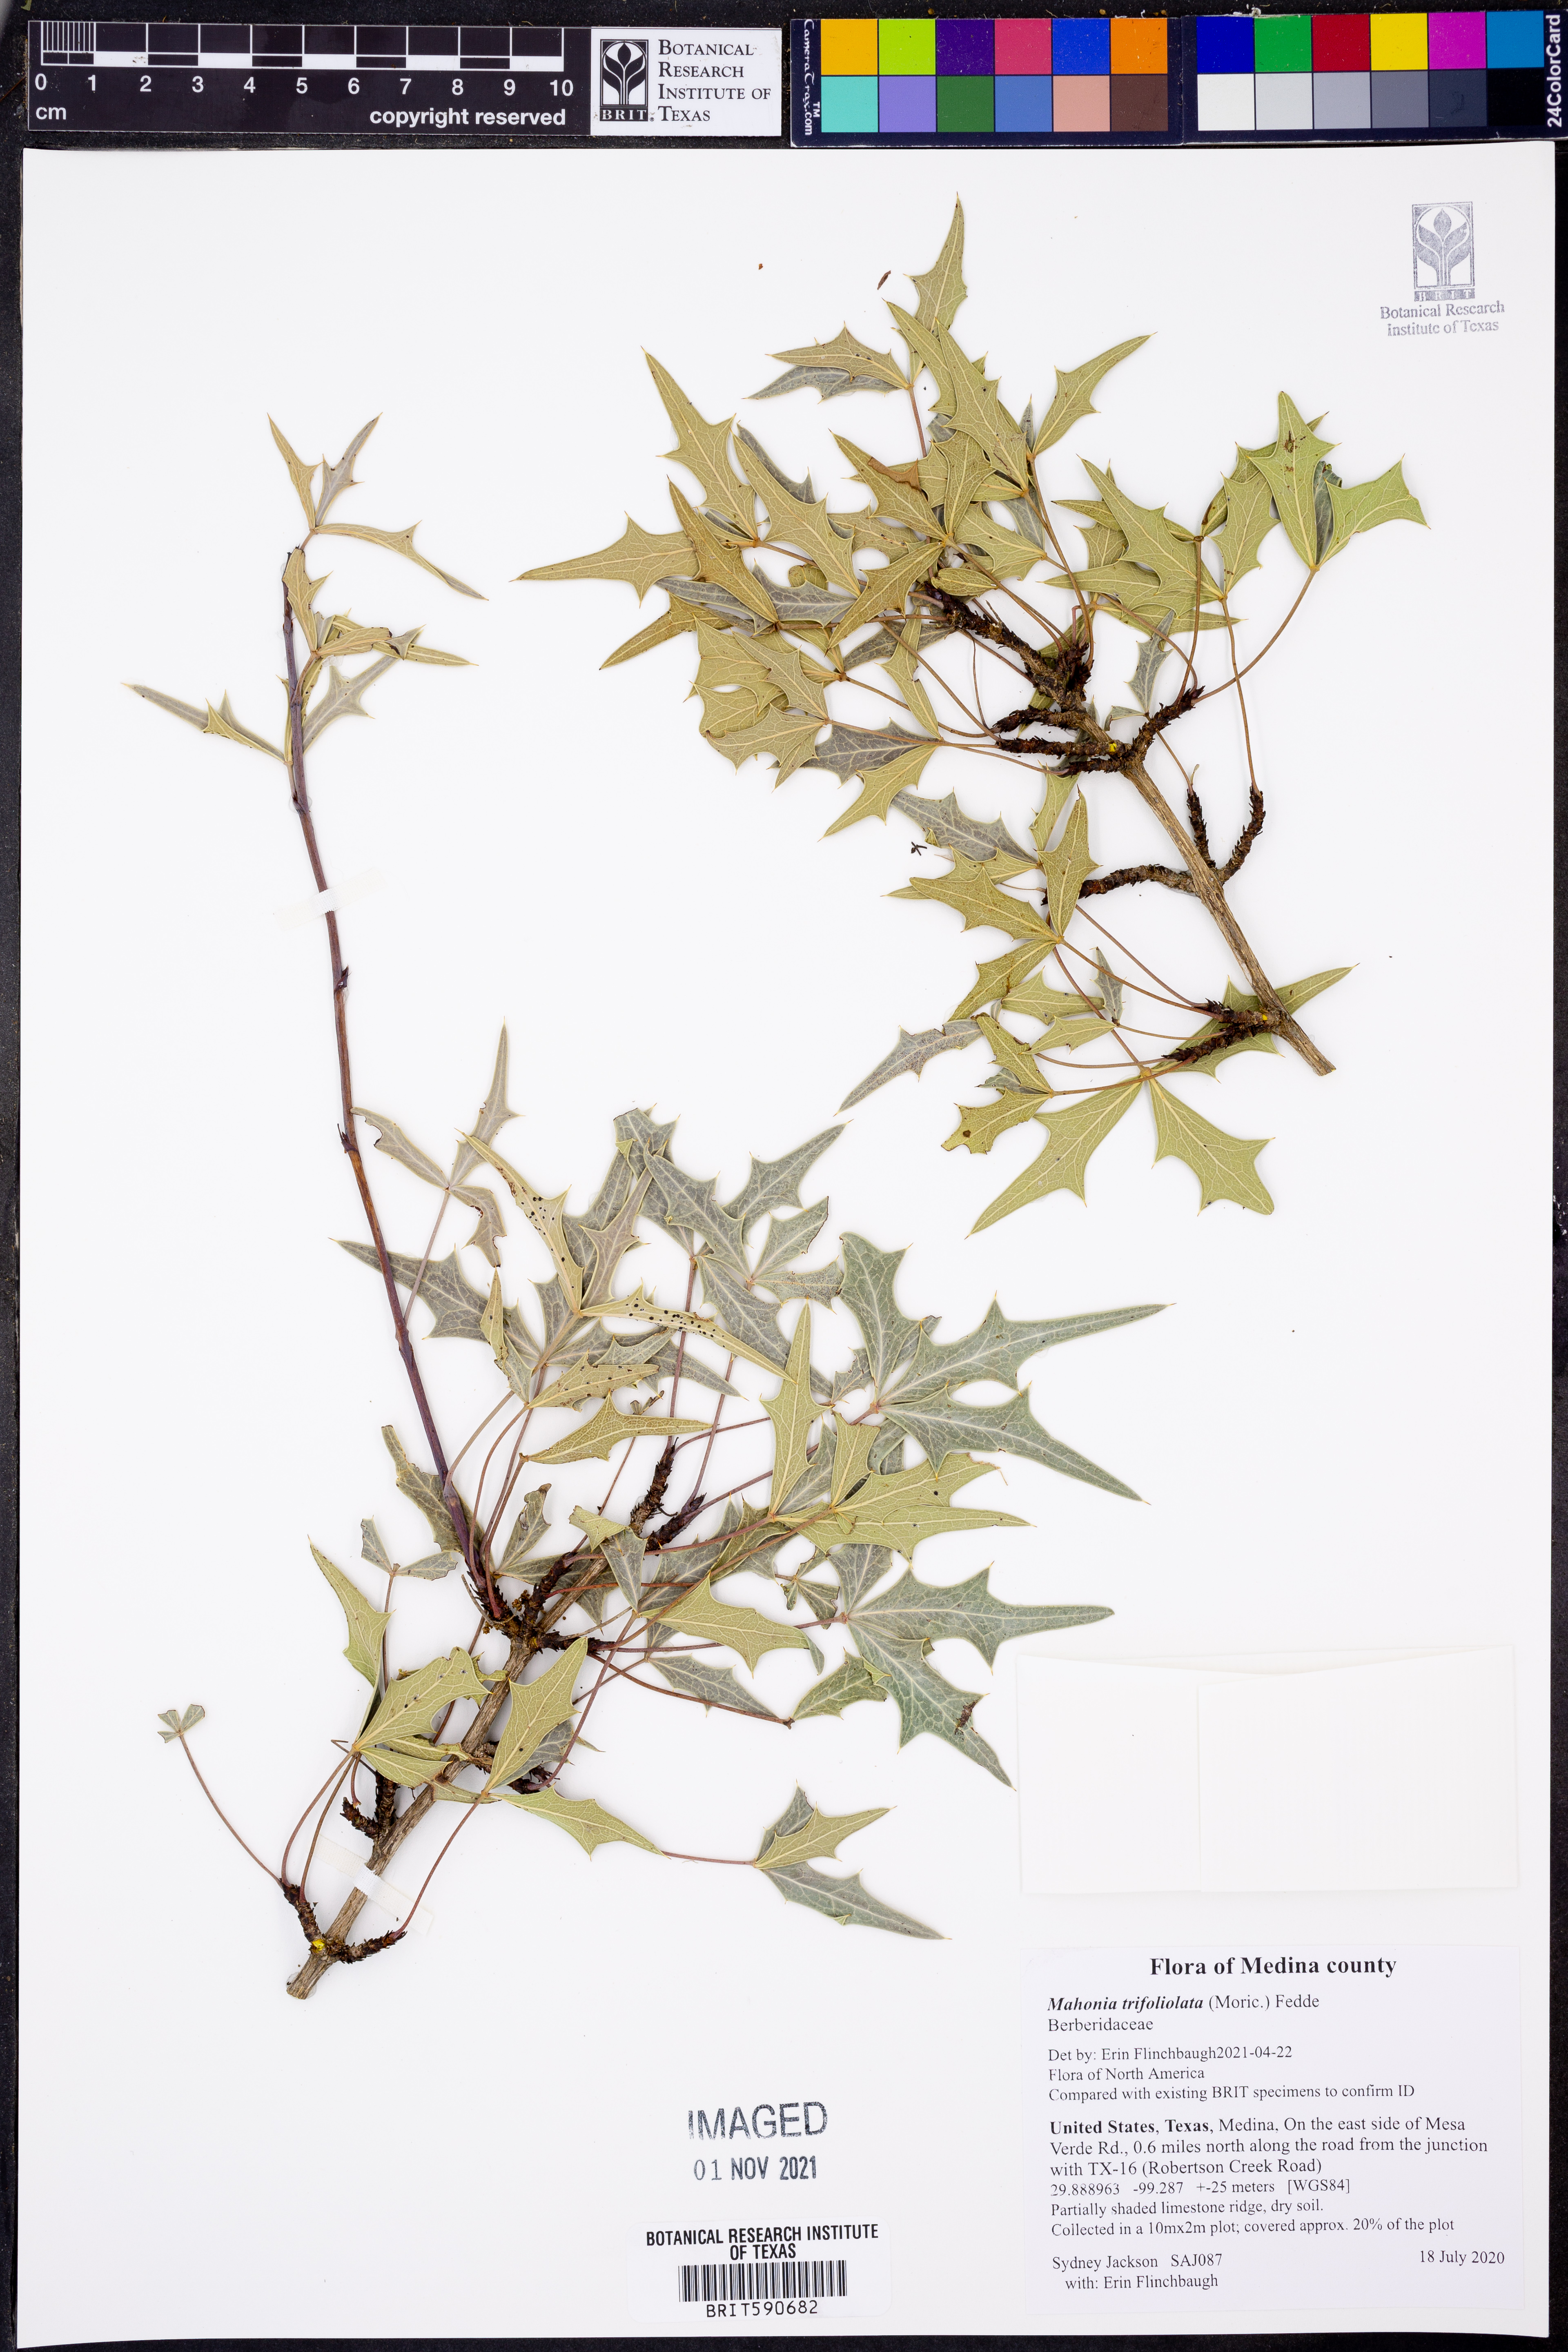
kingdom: Plantae
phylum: Tracheophyta
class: Magnoliopsida
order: Ranunculales
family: Berberidaceae
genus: Alloberberis
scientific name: Alloberberis trifoliolata
